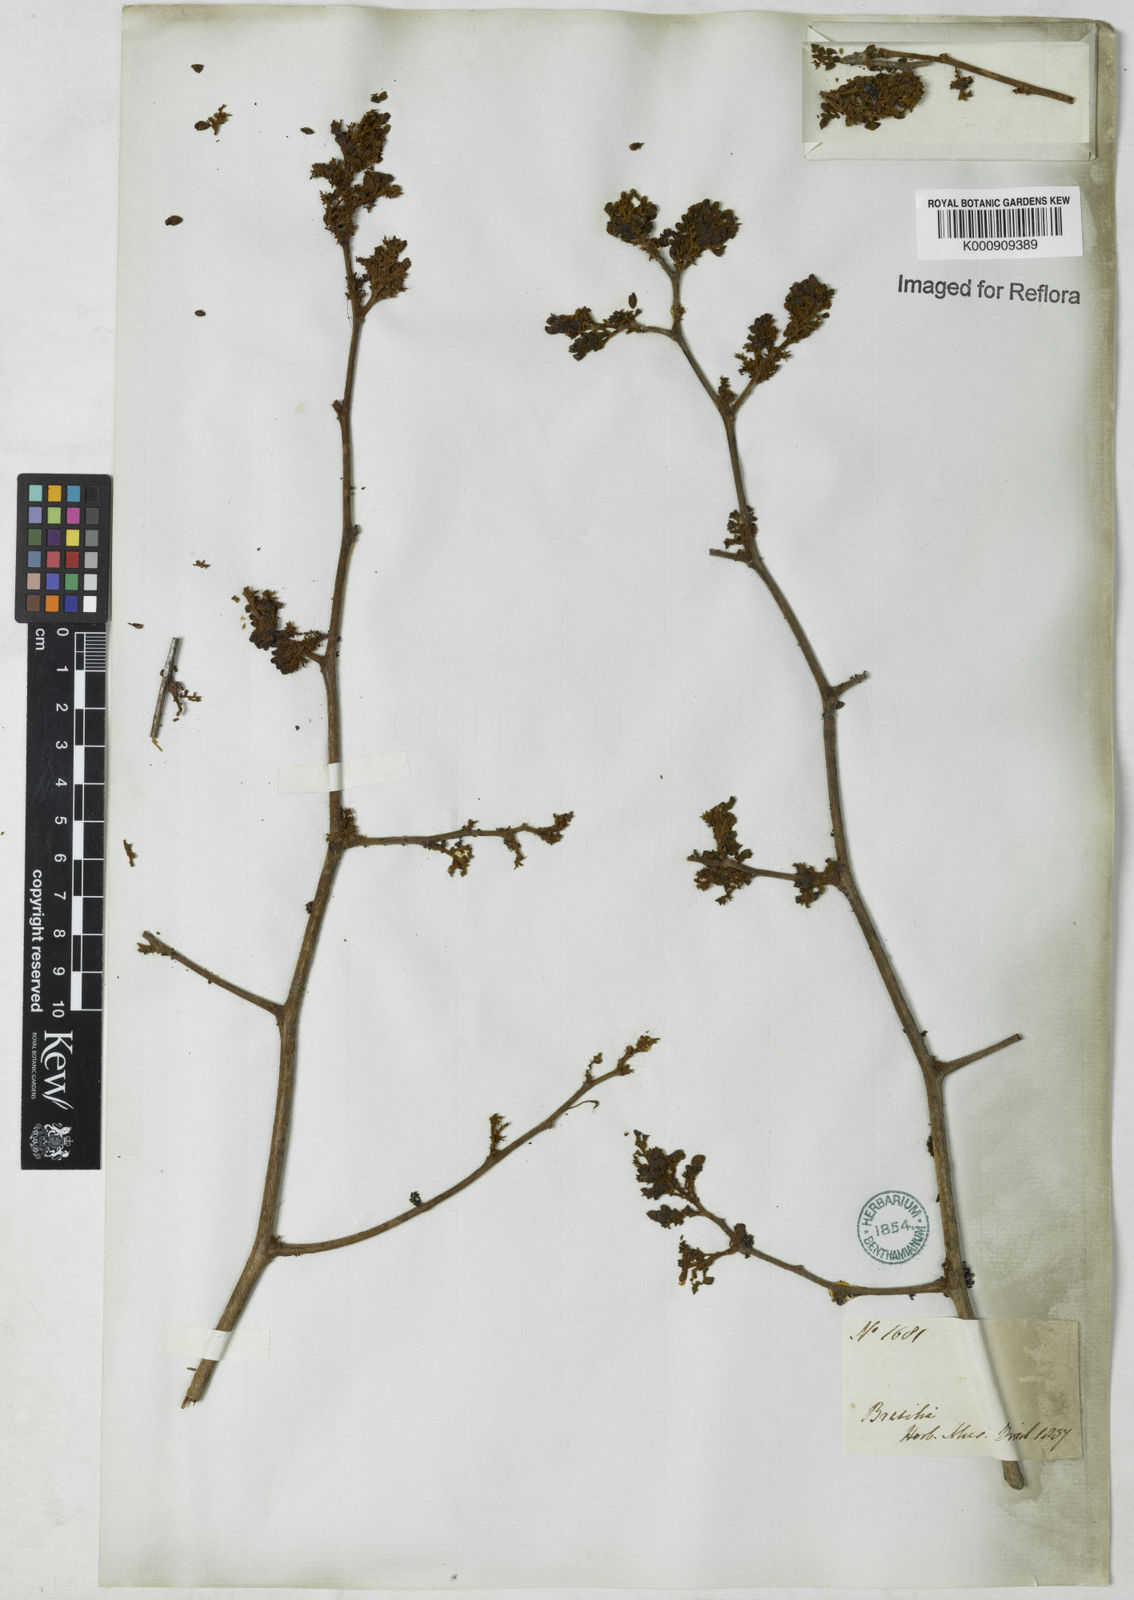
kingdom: Plantae
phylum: Tracheophyta
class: Magnoliopsida
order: Fabales
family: Fabaceae
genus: Dalbergia
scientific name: Dalbergia
